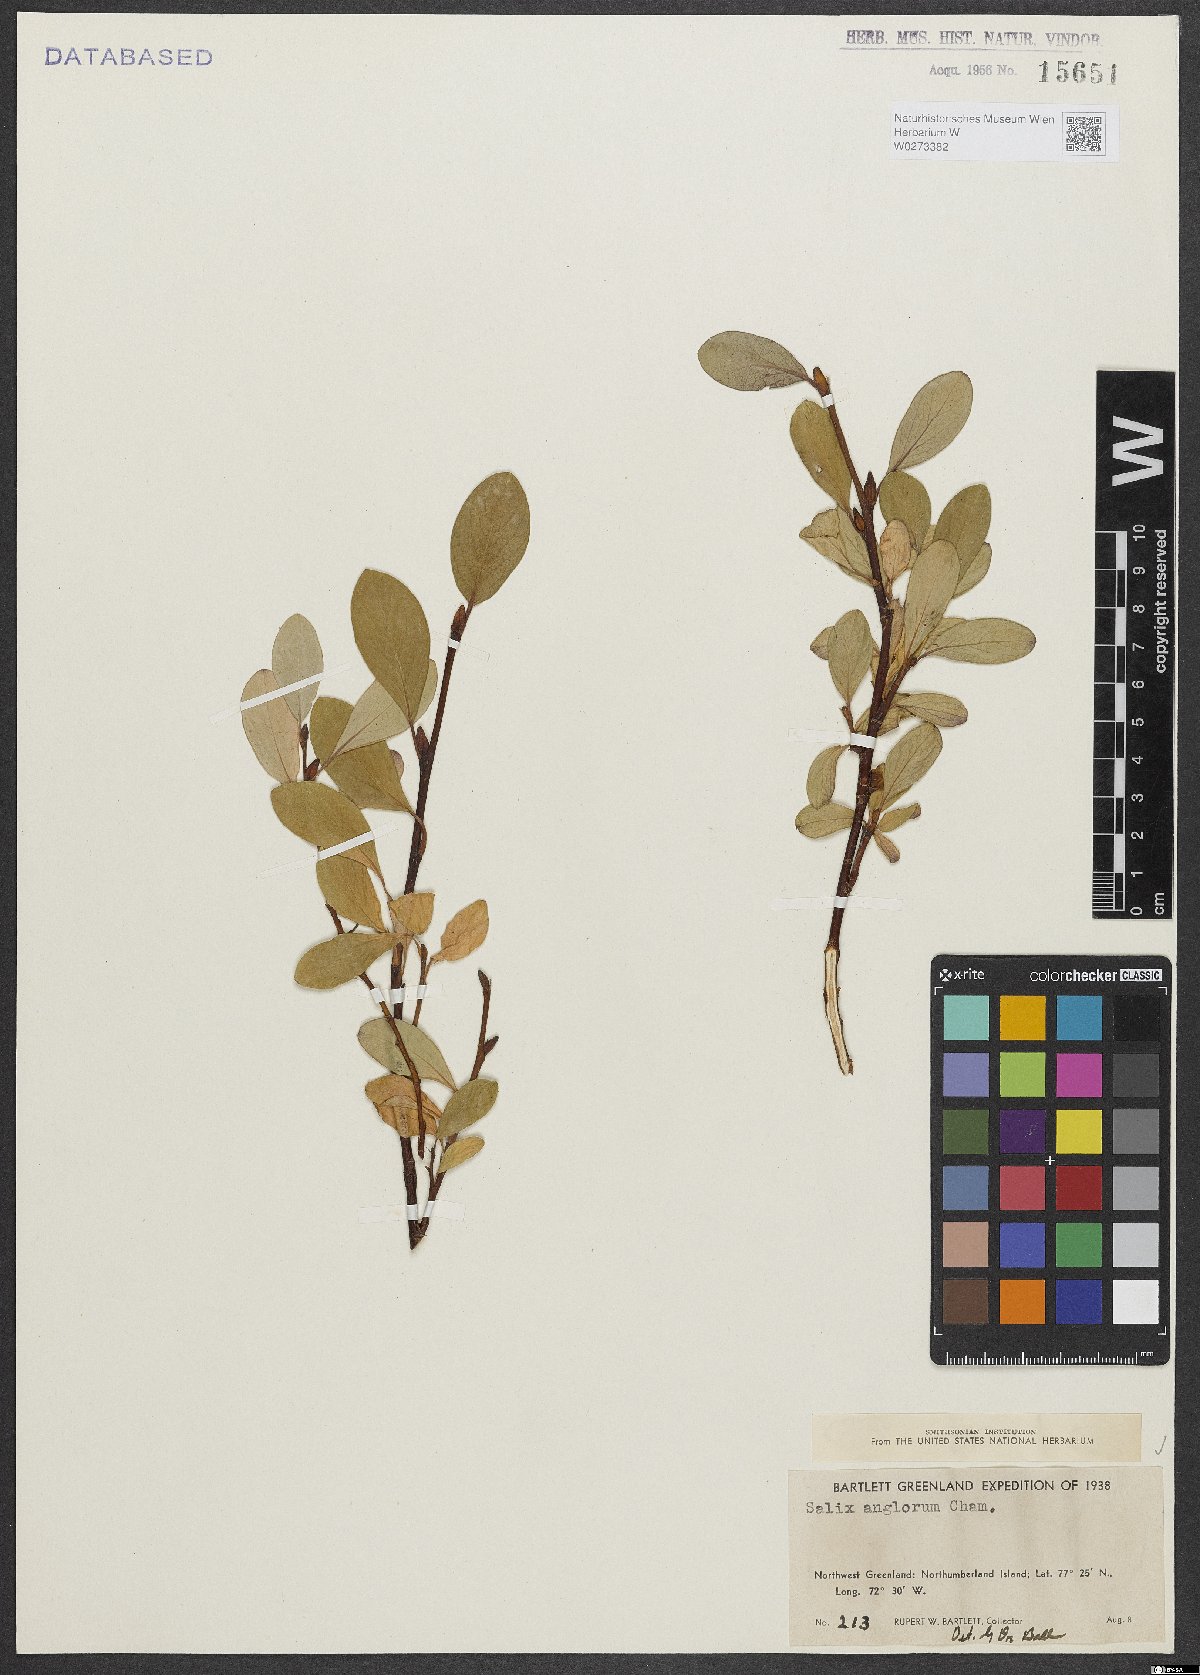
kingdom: Plantae
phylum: Tracheophyta
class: Magnoliopsida
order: Malpighiales
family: Salicaceae
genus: Salix
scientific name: Salix arctica
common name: Arctic willow
